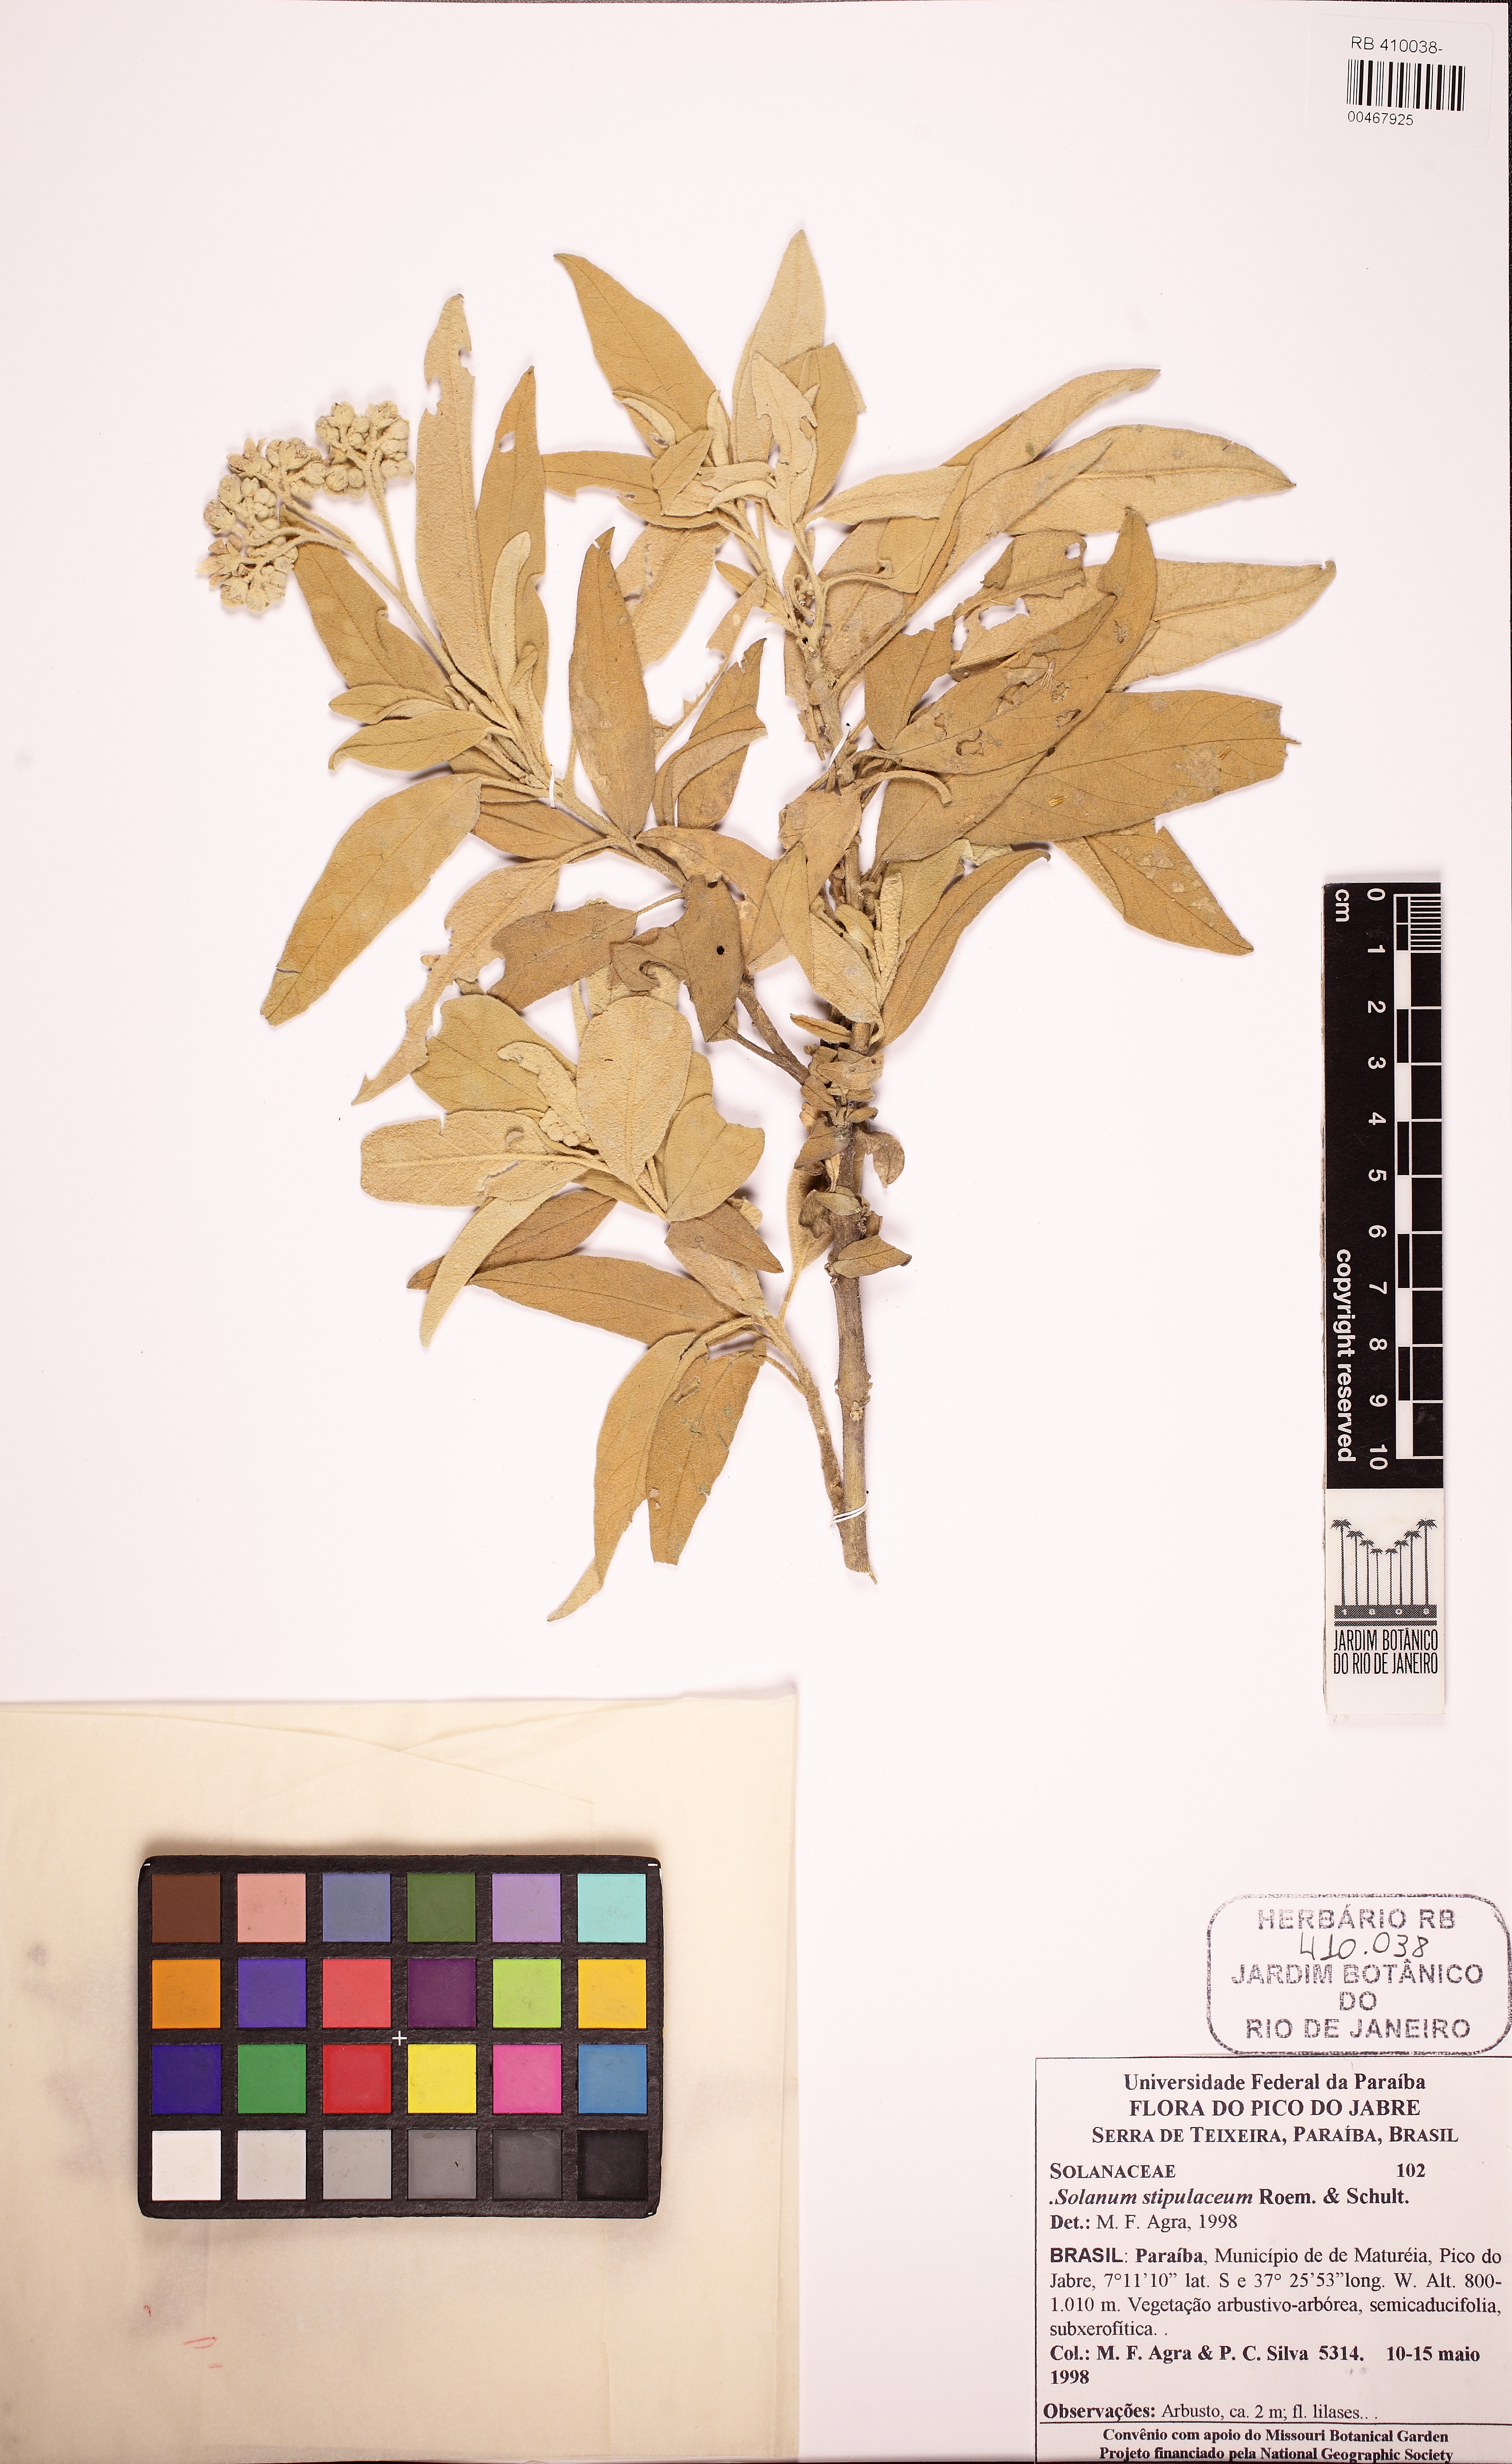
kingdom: Plantae
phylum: Tracheophyta
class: Magnoliopsida
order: Solanales
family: Solanaceae
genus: Solanum
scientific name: Solanum stipulaceum
